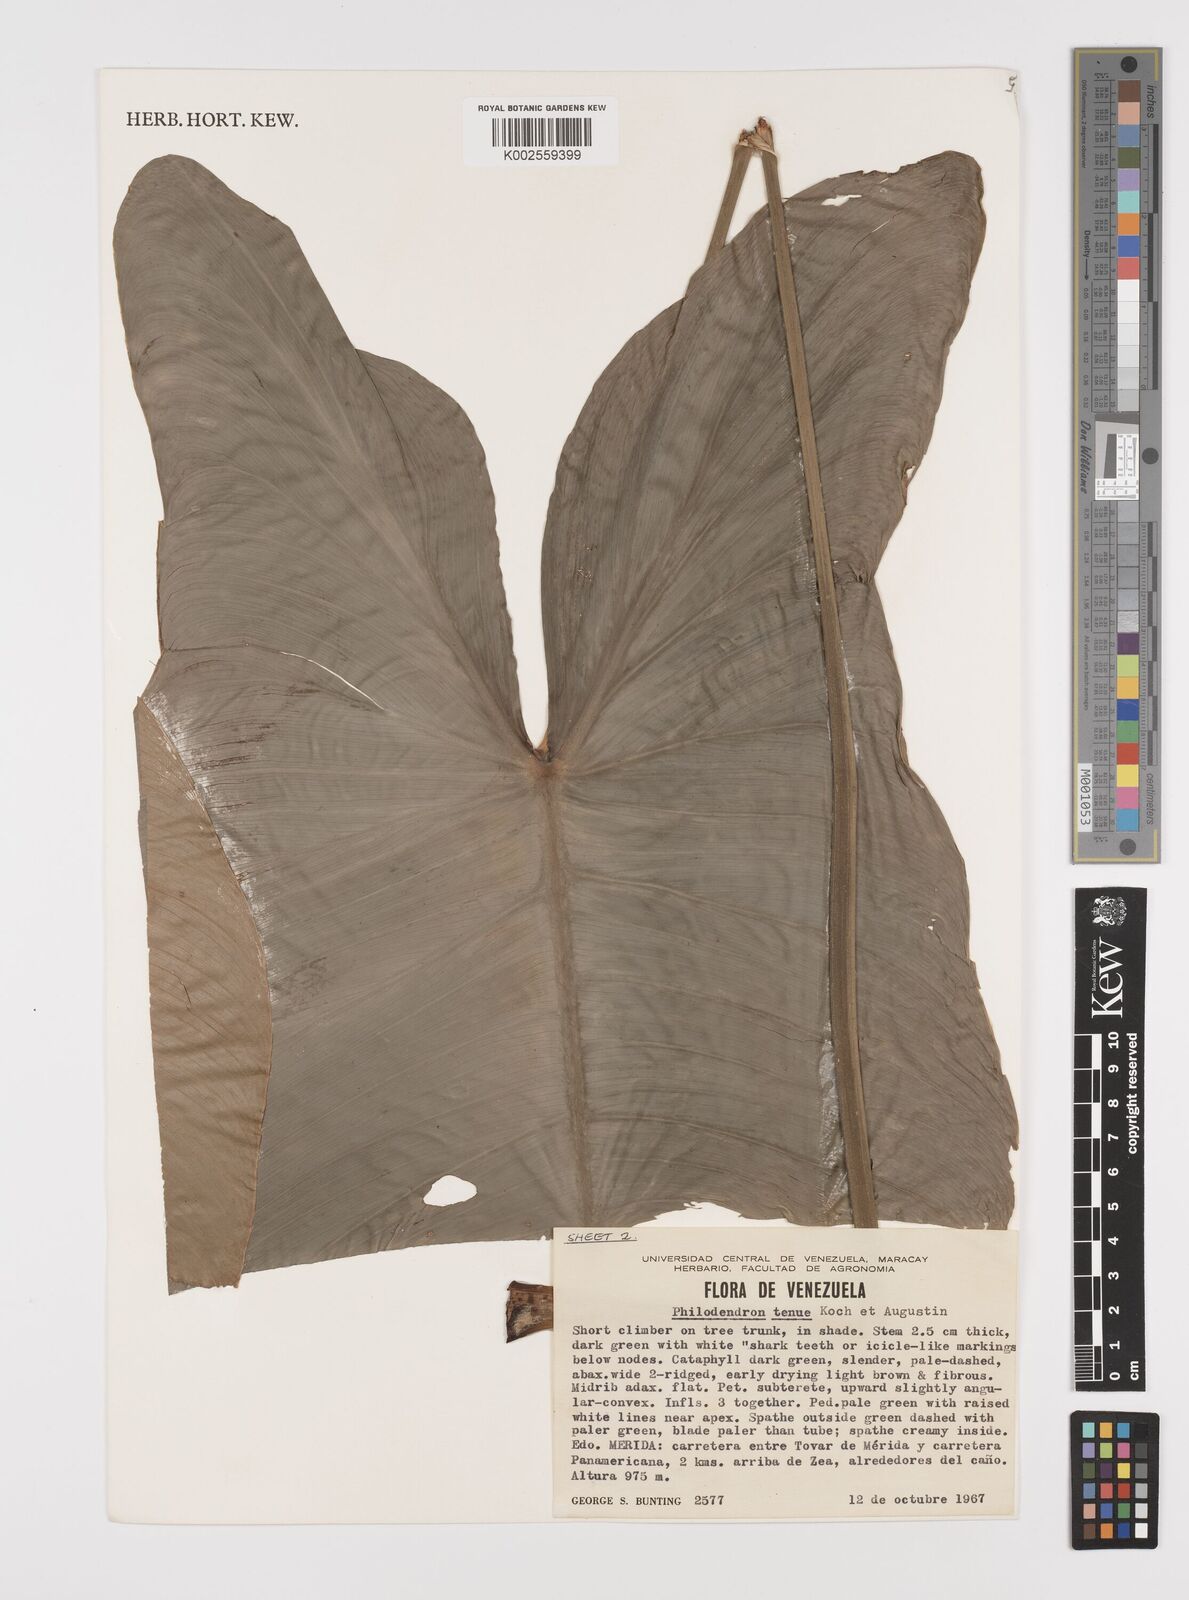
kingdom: Plantae
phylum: Tracheophyta
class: Liliopsida
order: Alismatales
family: Araceae
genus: Philodendron
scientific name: Philodendron tenue
